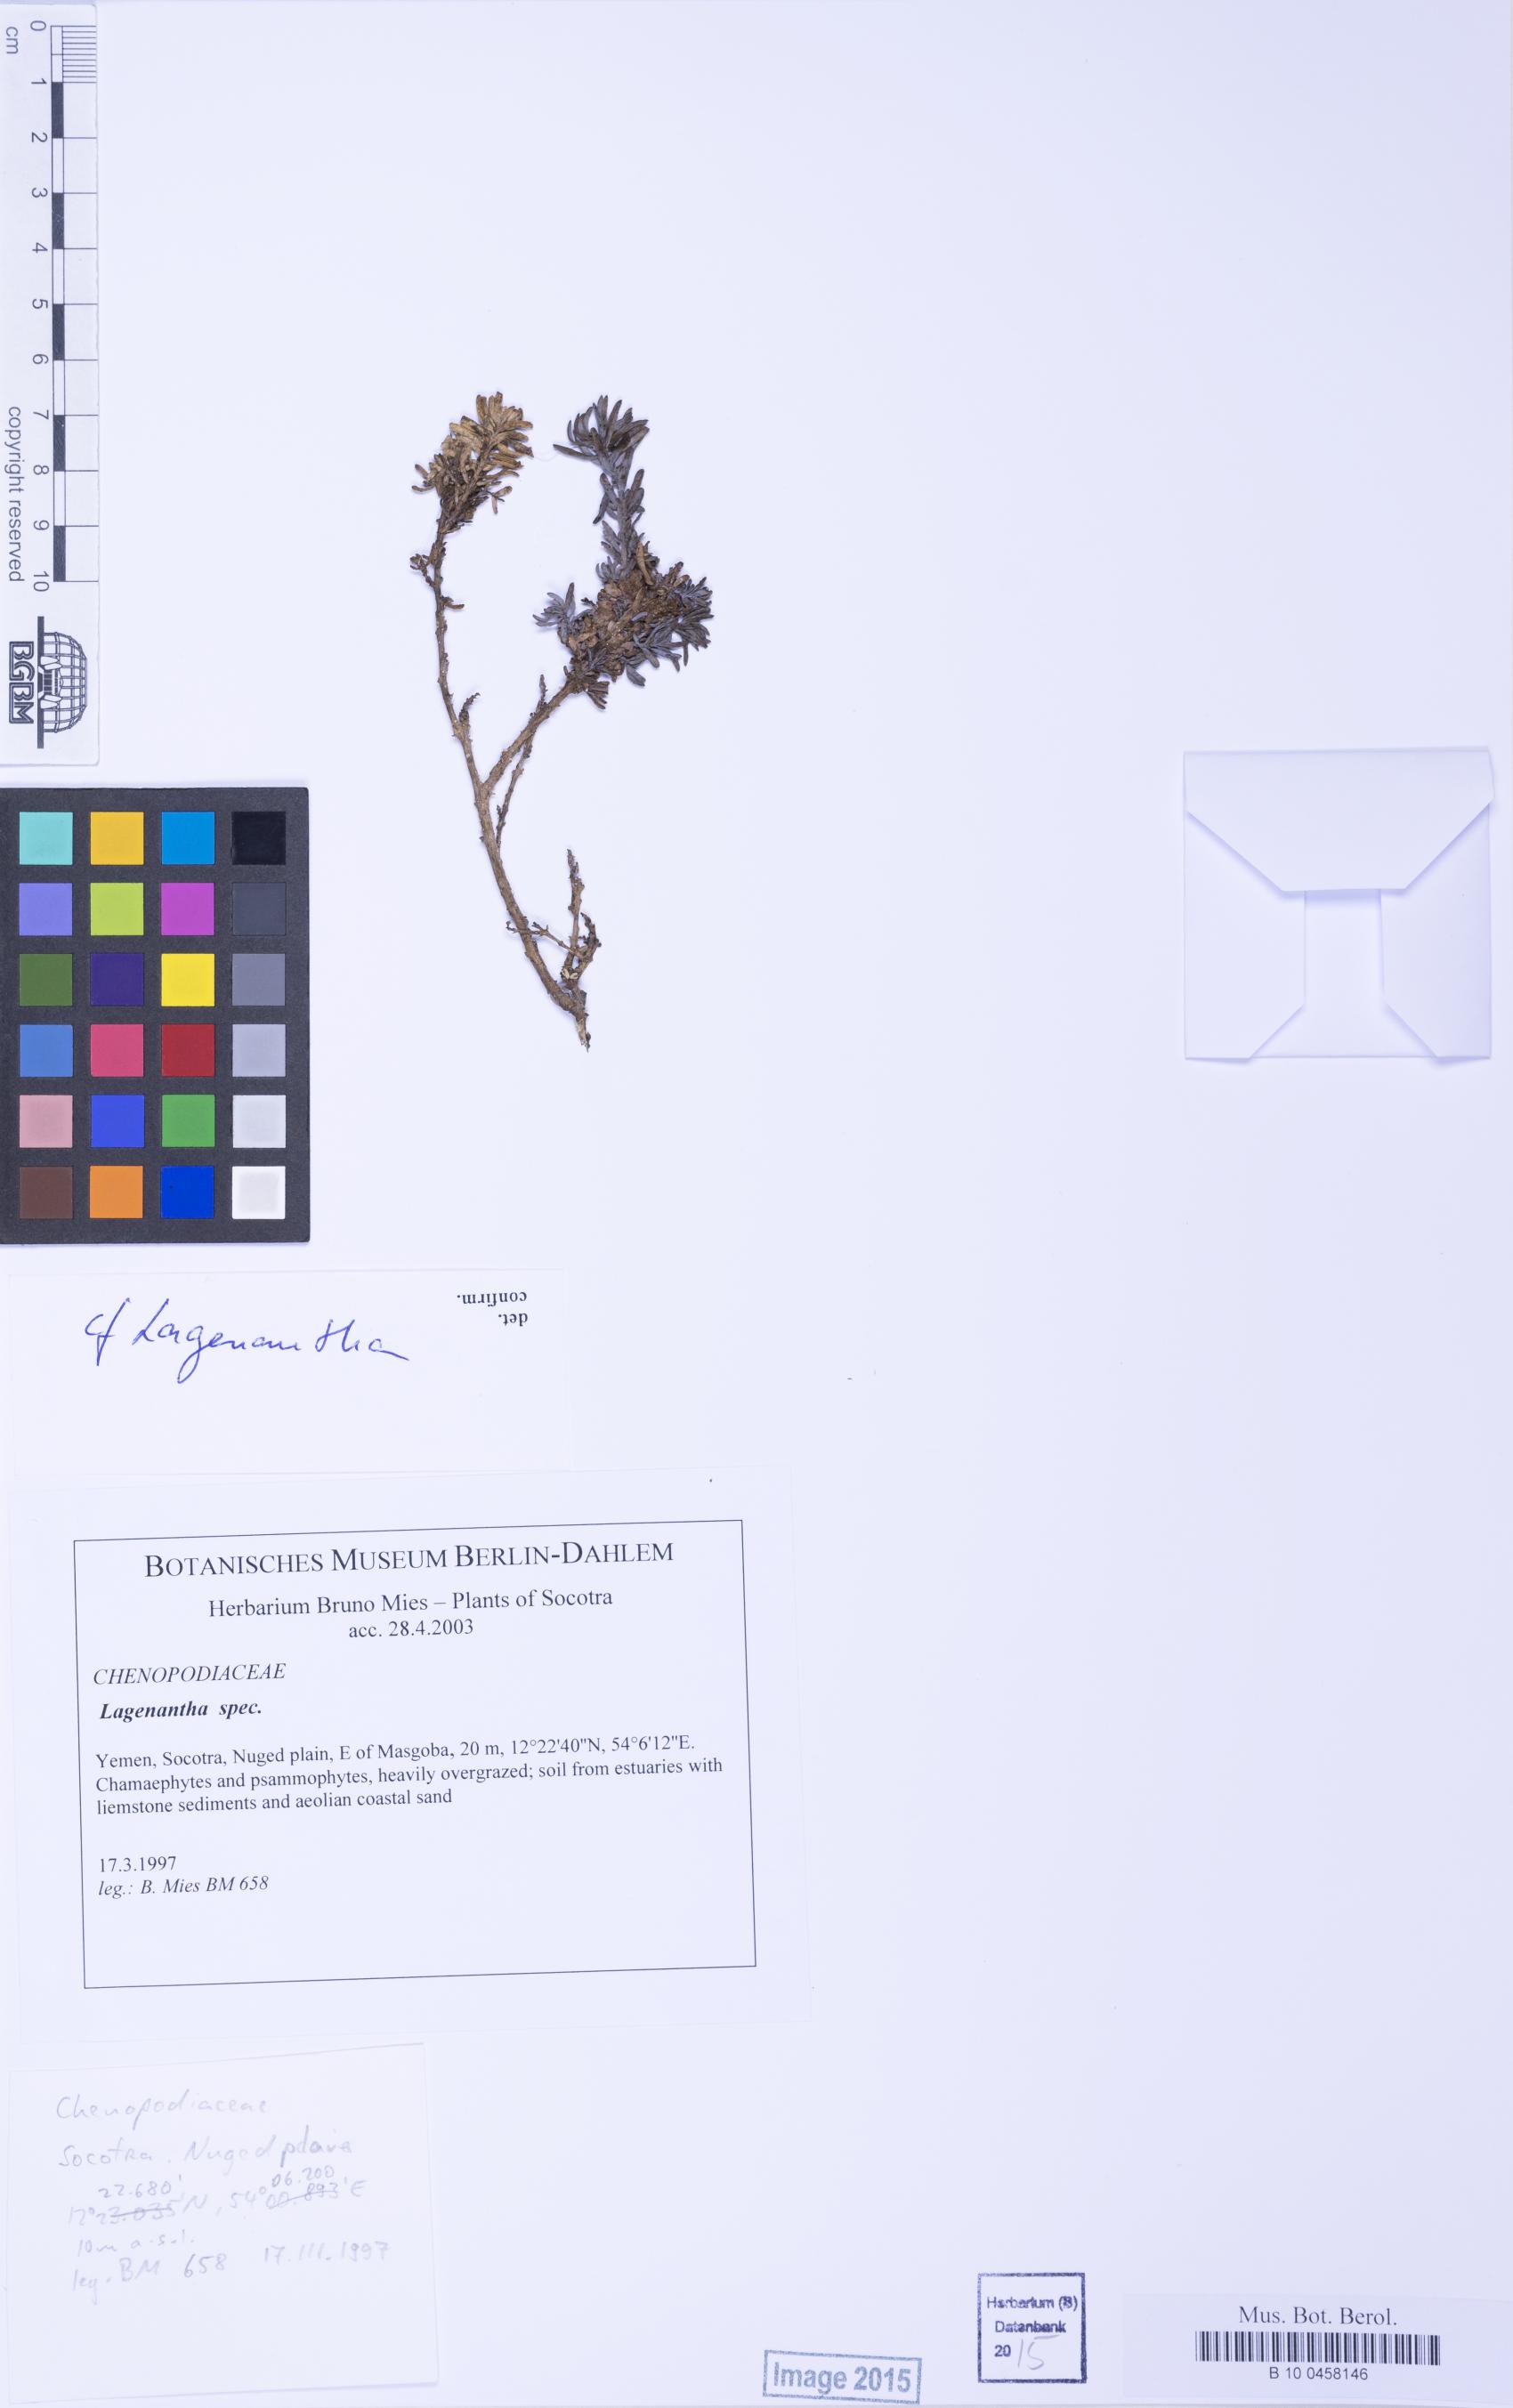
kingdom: Plantae
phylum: Tracheophyta
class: Magnoliopsida
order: Caryophyllales
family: Amaranthaceae
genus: Lagenantha
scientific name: Lagenantha
